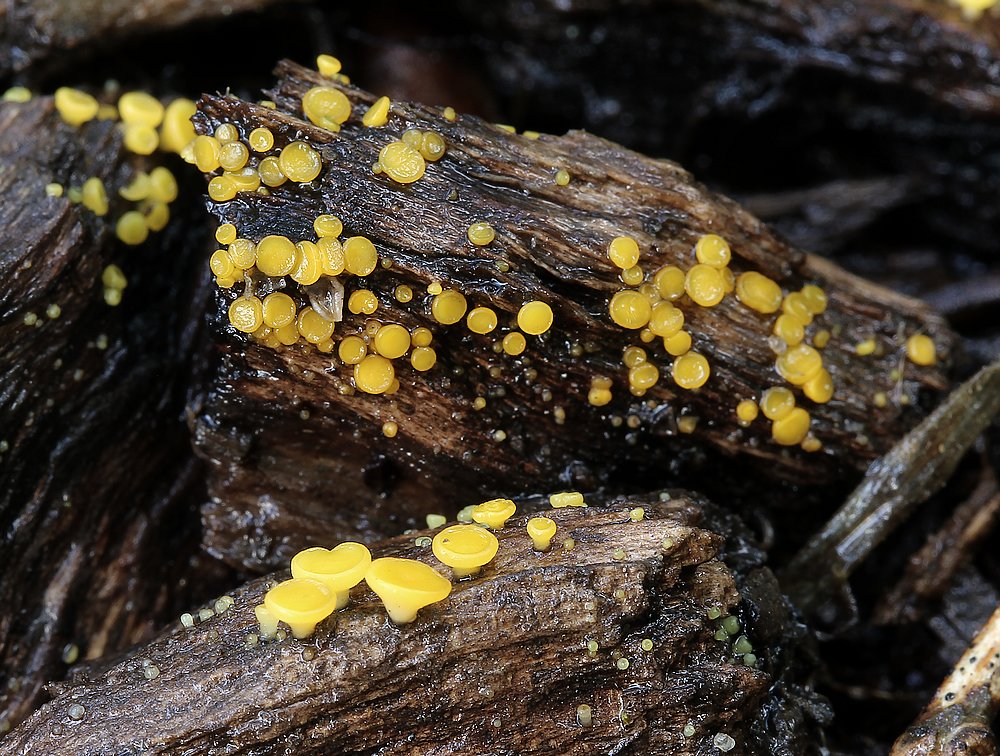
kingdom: Fungi
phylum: Ascomycota
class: Leotiomycetes
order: Helotiales
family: Pezizellaceae
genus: Calycina
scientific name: Calycina citrina
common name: almindelig gulskive
